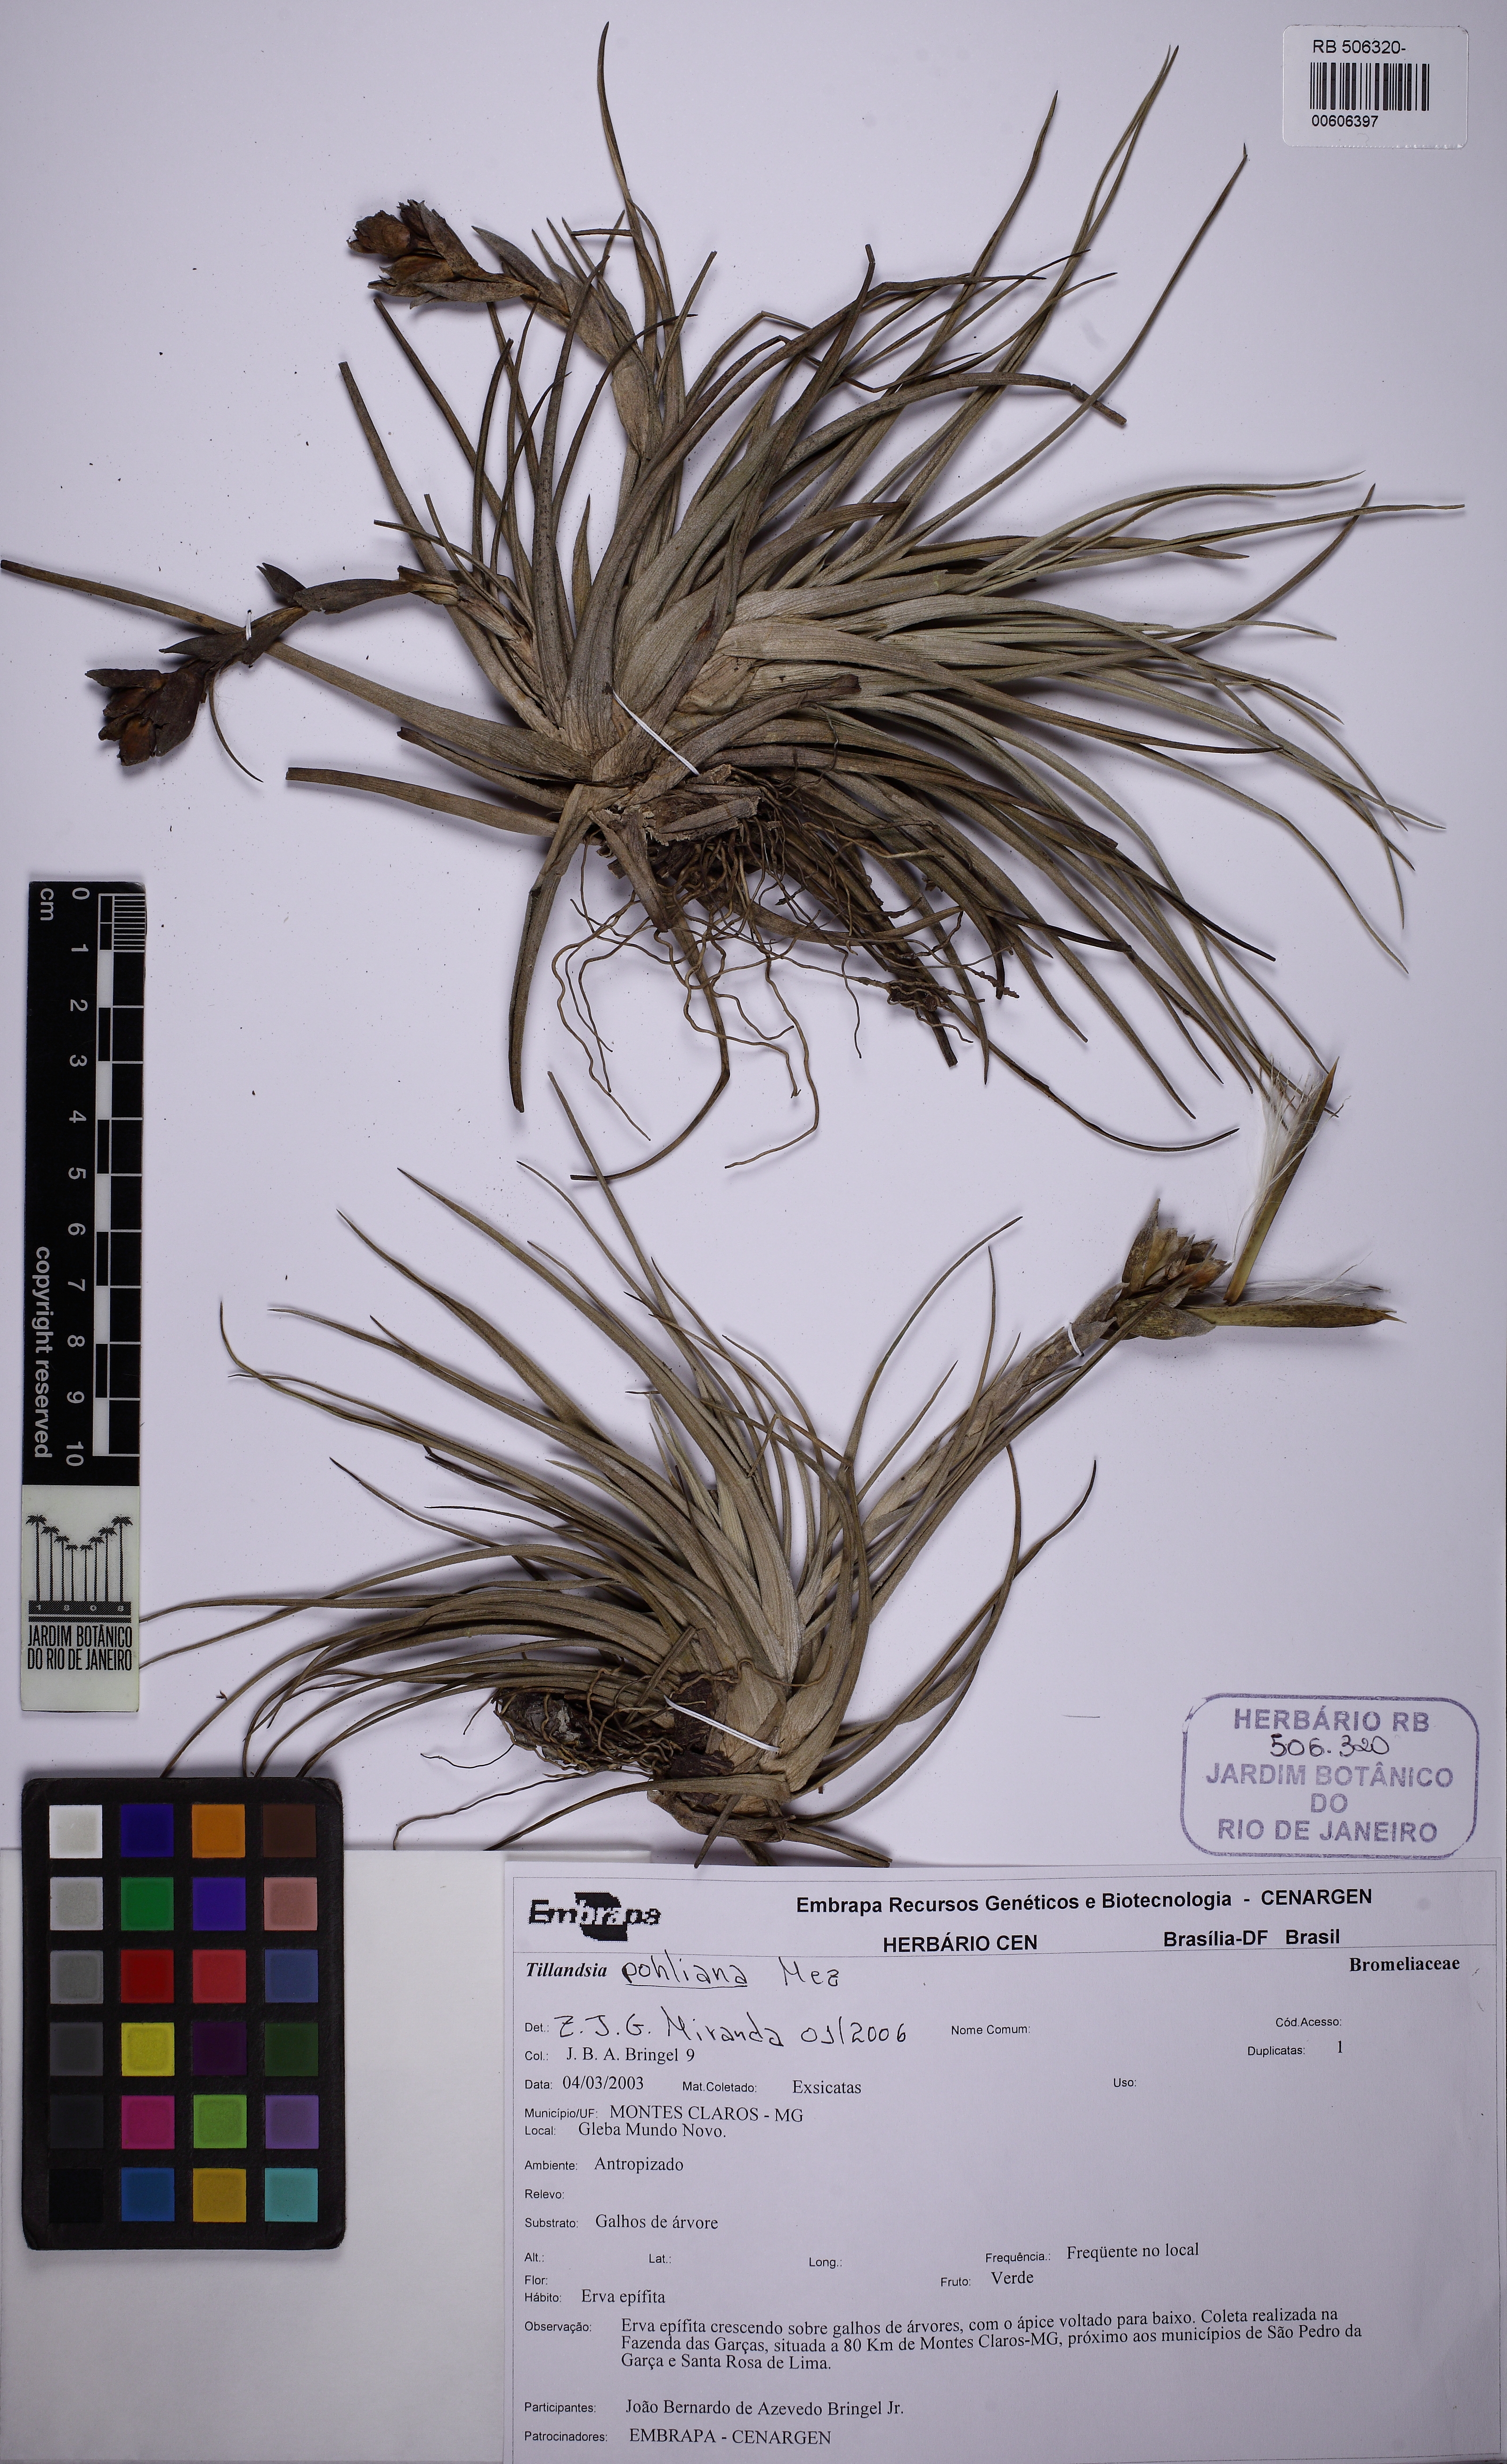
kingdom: Plantae
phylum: Tracheophyta
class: Liliopsida
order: Poales
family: Bromeliaceae
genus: Tillandsia
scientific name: Tillandsia pohliana
